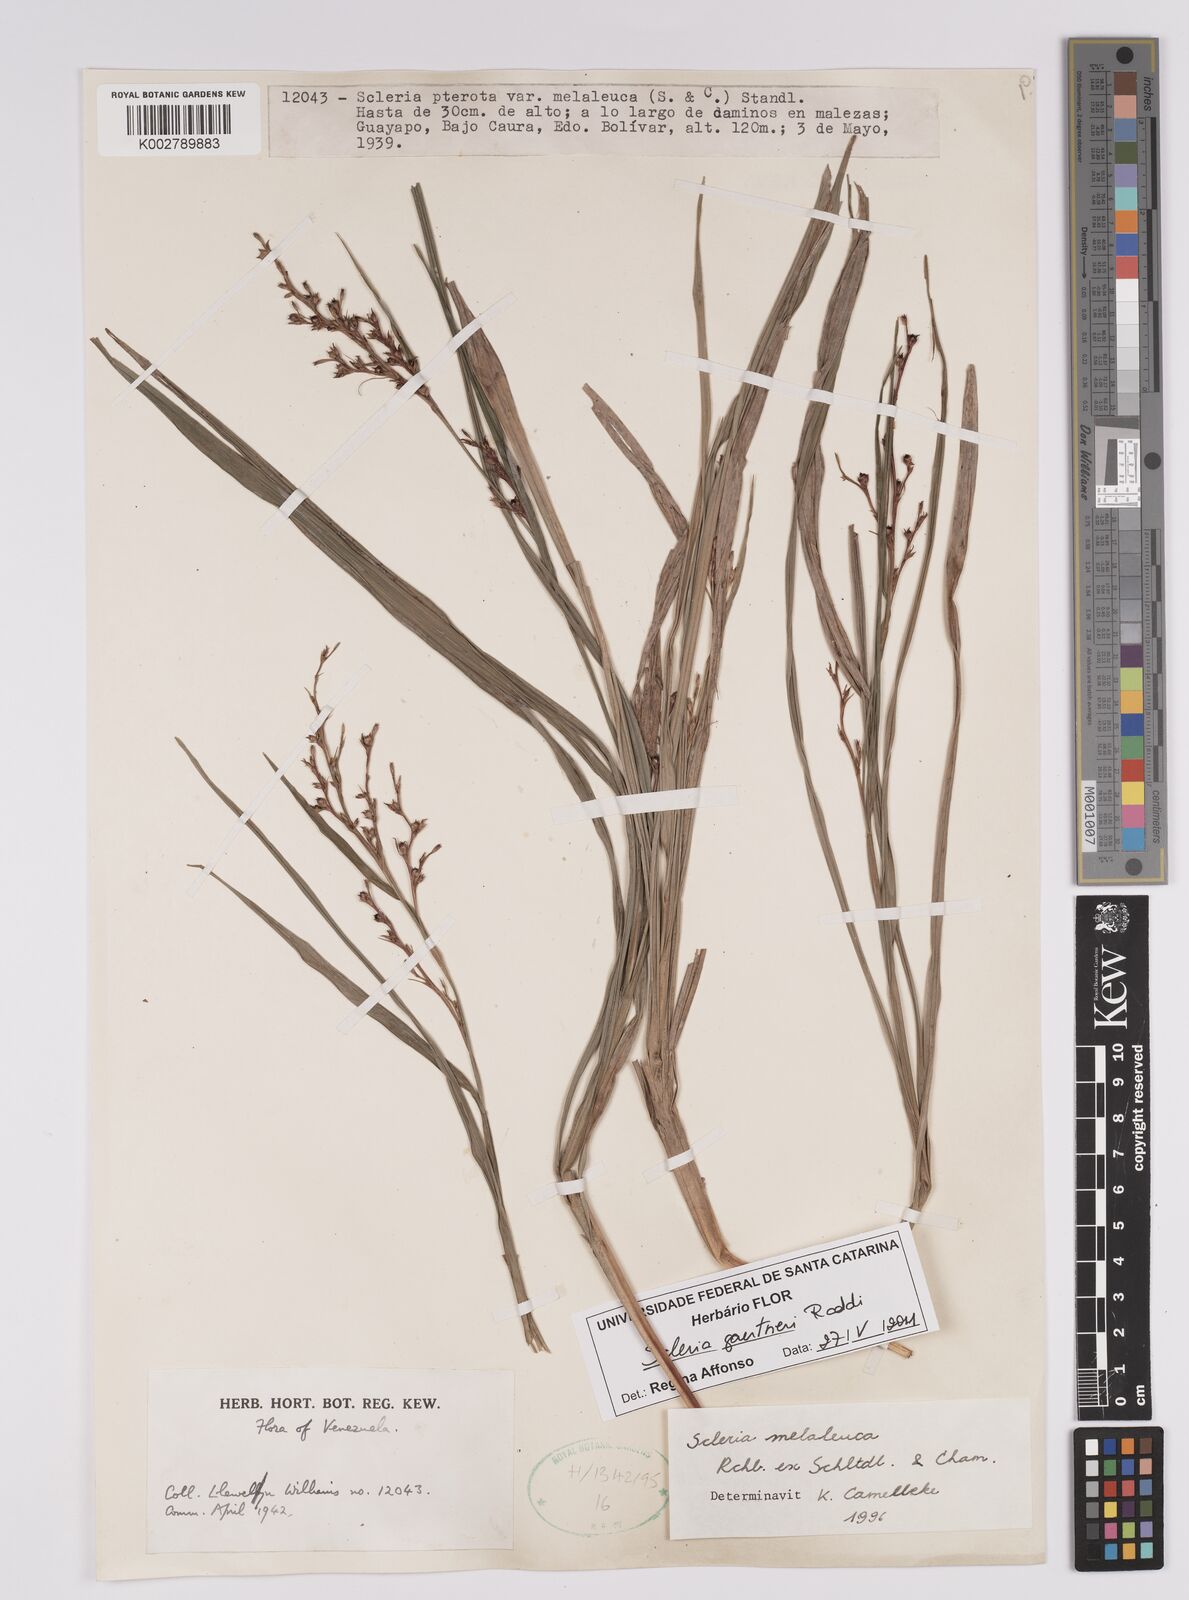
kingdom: Plantae
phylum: Tracheophyta
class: Liliopsida
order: Poales
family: Cyperaceae
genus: Scleria
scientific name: Scleria gaertneri
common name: Cortadera blanca
